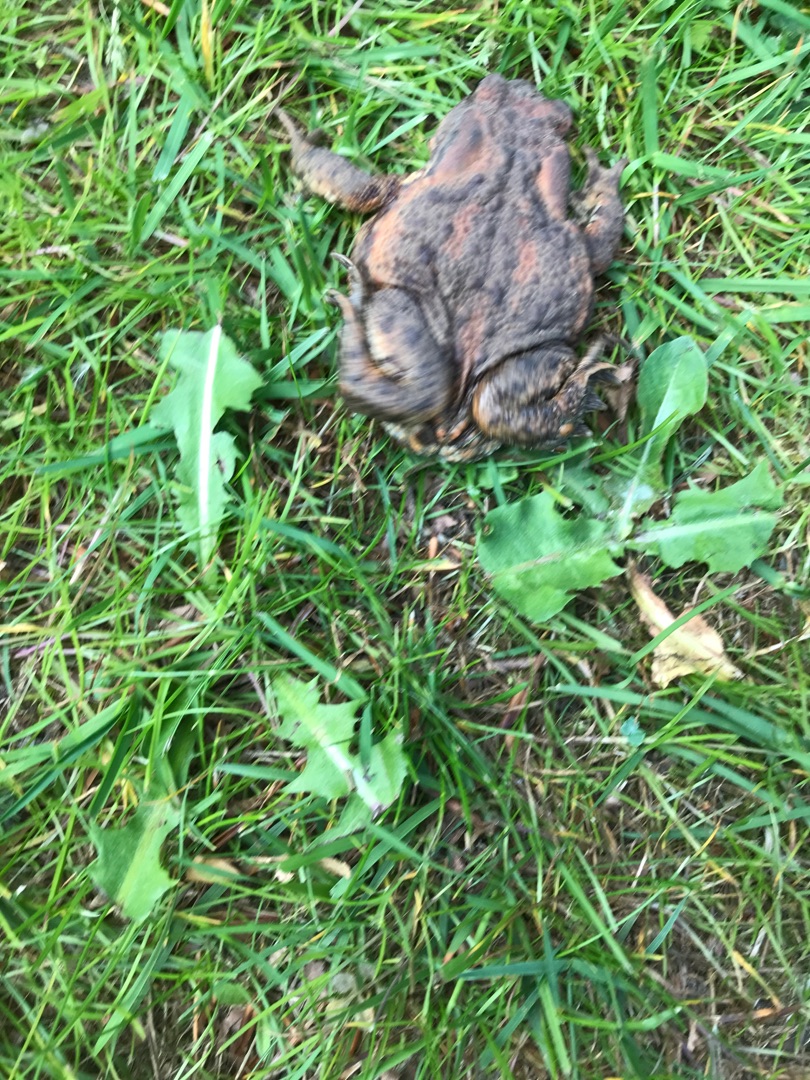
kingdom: Animalia
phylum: Chordata
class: Amphibia
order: Anura
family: Bufonidae
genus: Bufo
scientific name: Bufo bufo
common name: Skrubtudse
